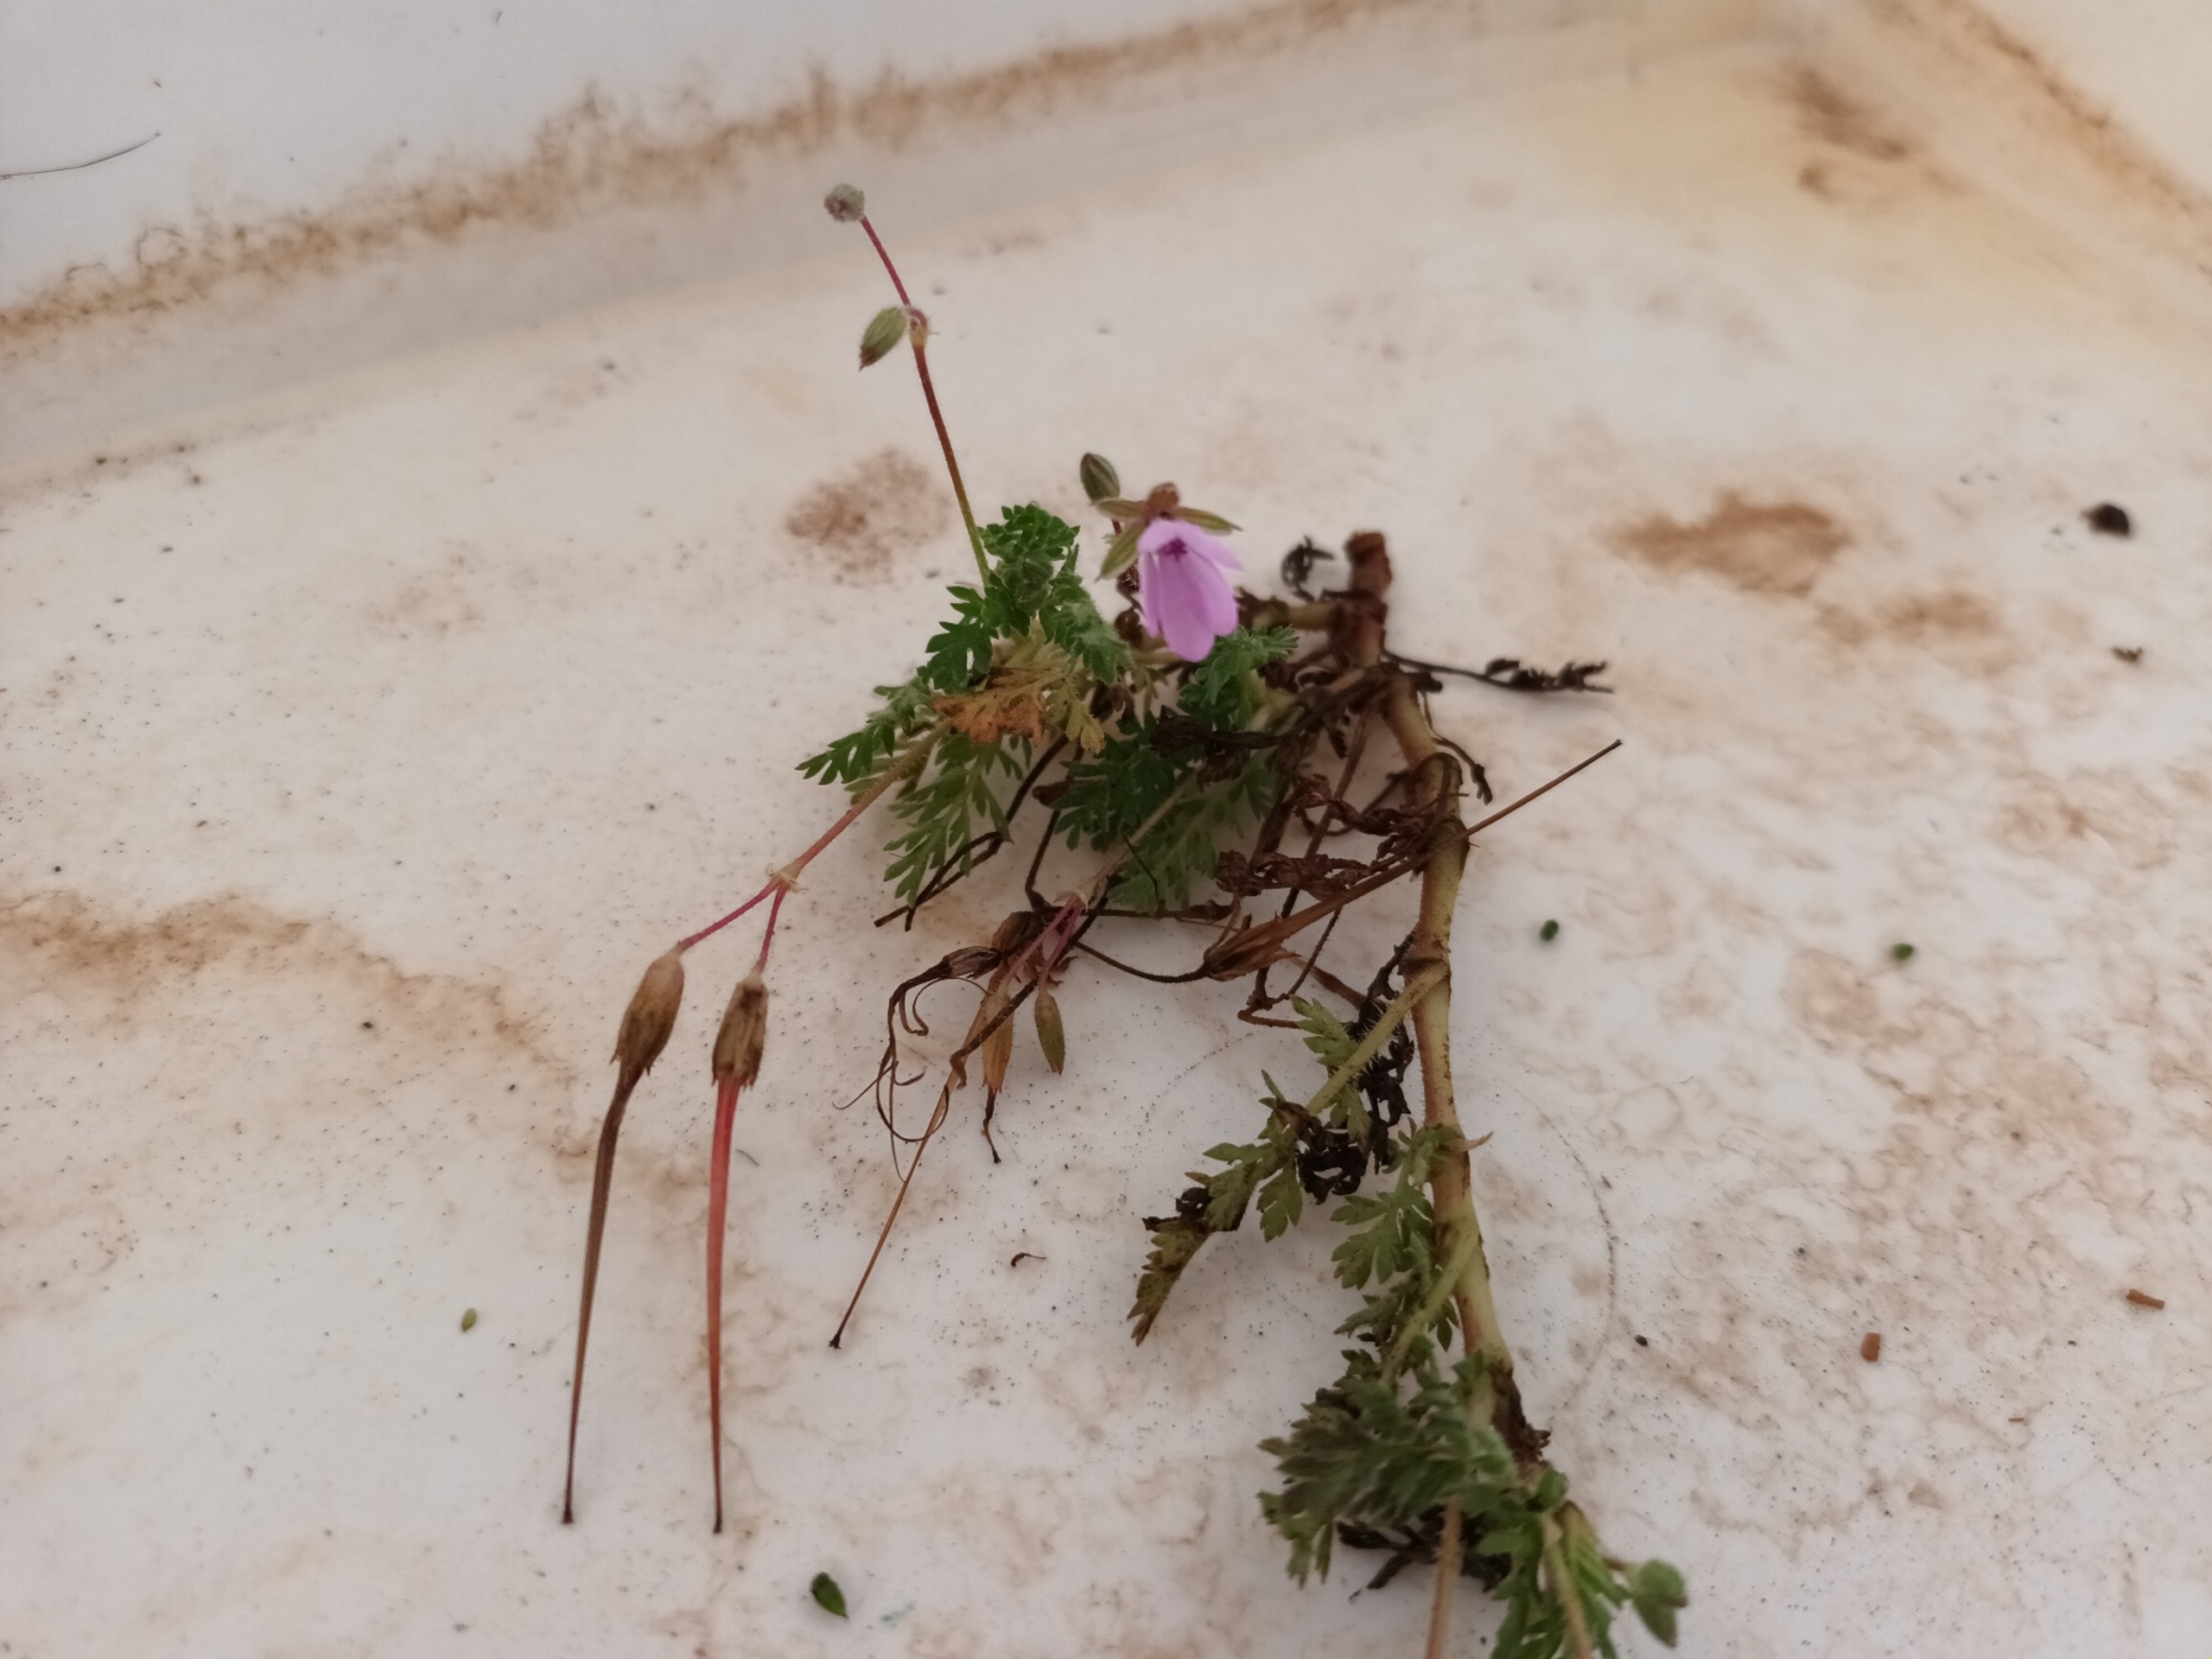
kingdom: Plantae
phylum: Tracheophyta
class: Magnoliopsida
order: Geraniales
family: Geraniaceae
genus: Erodium
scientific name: Erodium cicutarium
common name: Hejrenæb
